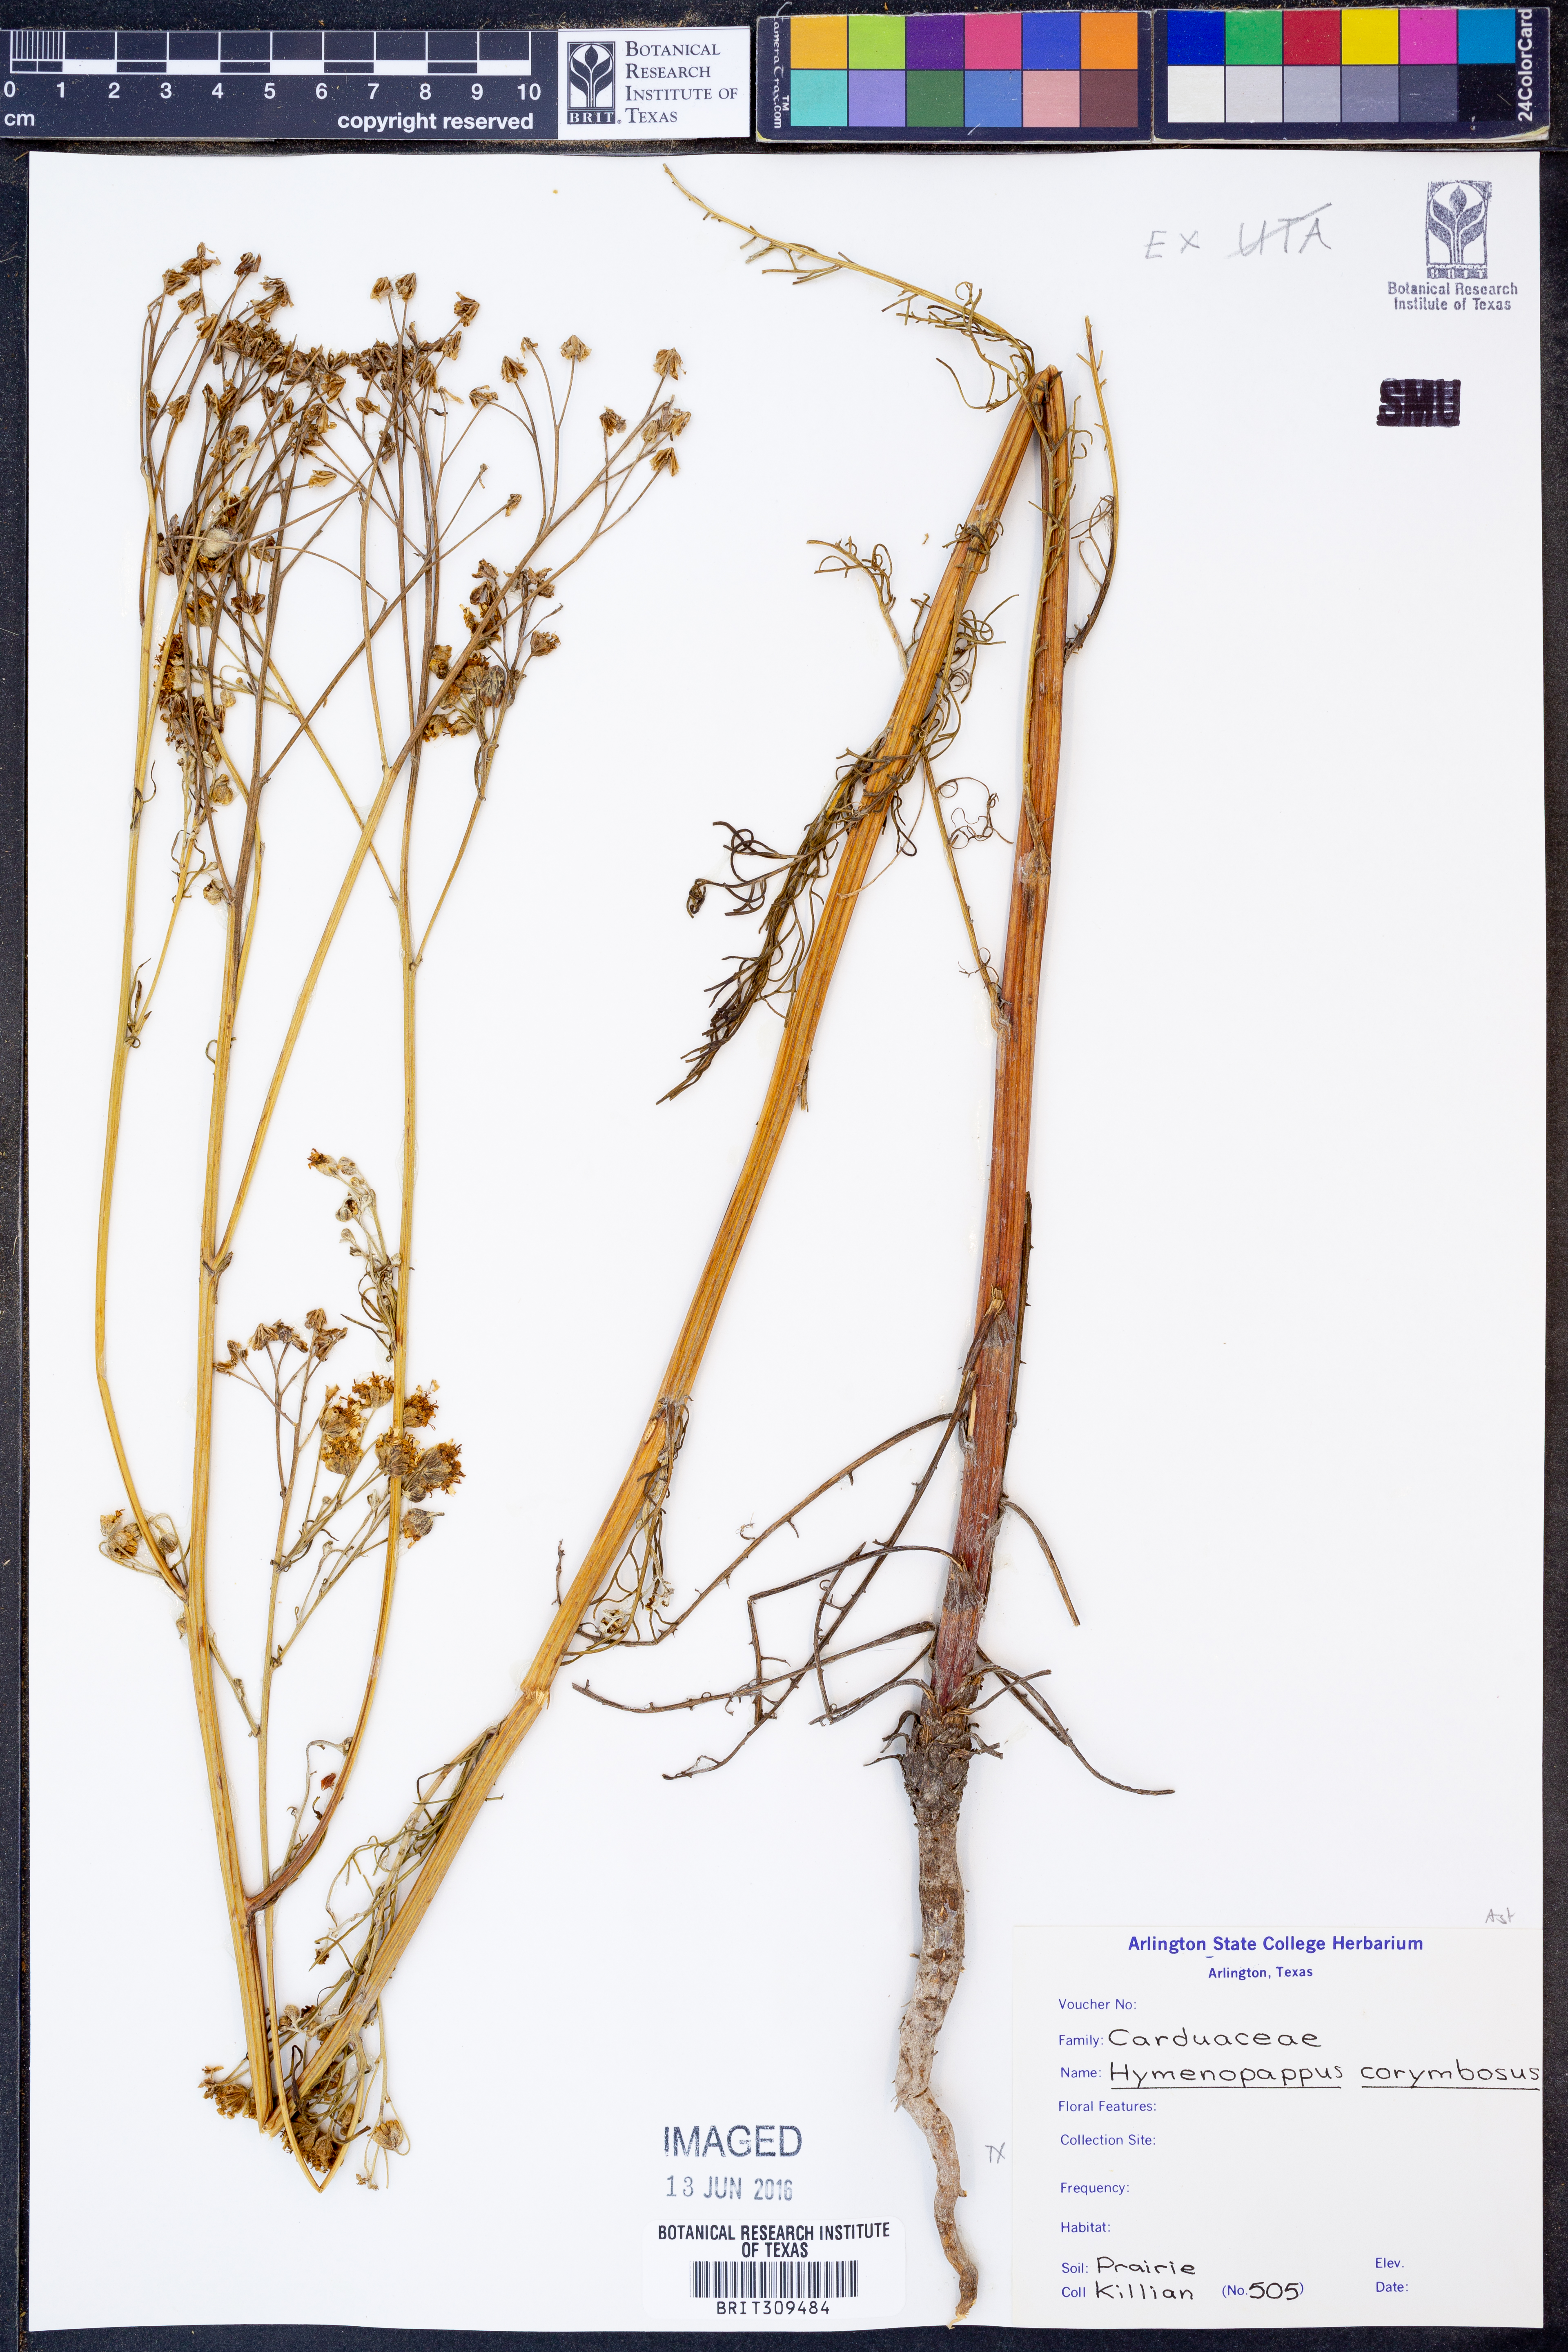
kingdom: Plantae
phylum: Tracheophyta
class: Magnoliopsida
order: Asterales
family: Asteraceae
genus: Hymenopappus
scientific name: Hymenopappus scabiosaeus
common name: Carolina woollywhite
